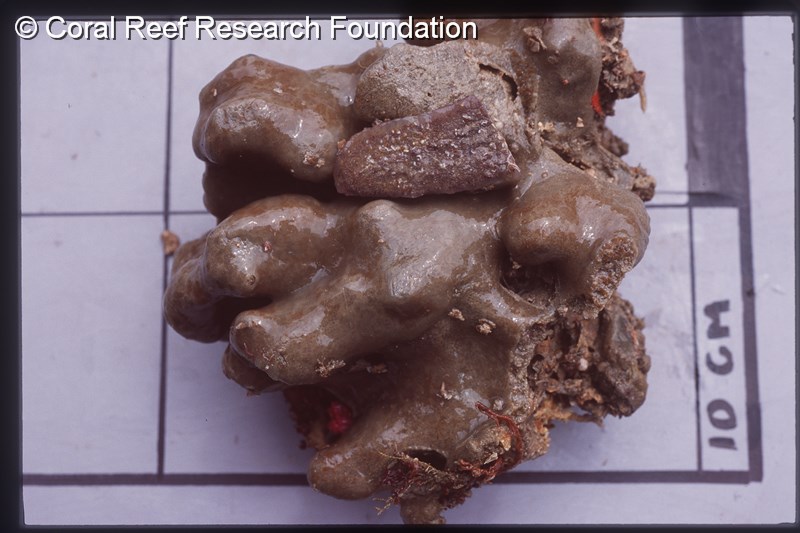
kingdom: Animalia
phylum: Chordata
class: Ascidiacea
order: Aplousobranchia
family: Polyclinidae
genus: Aplidium
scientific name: Aplidium
